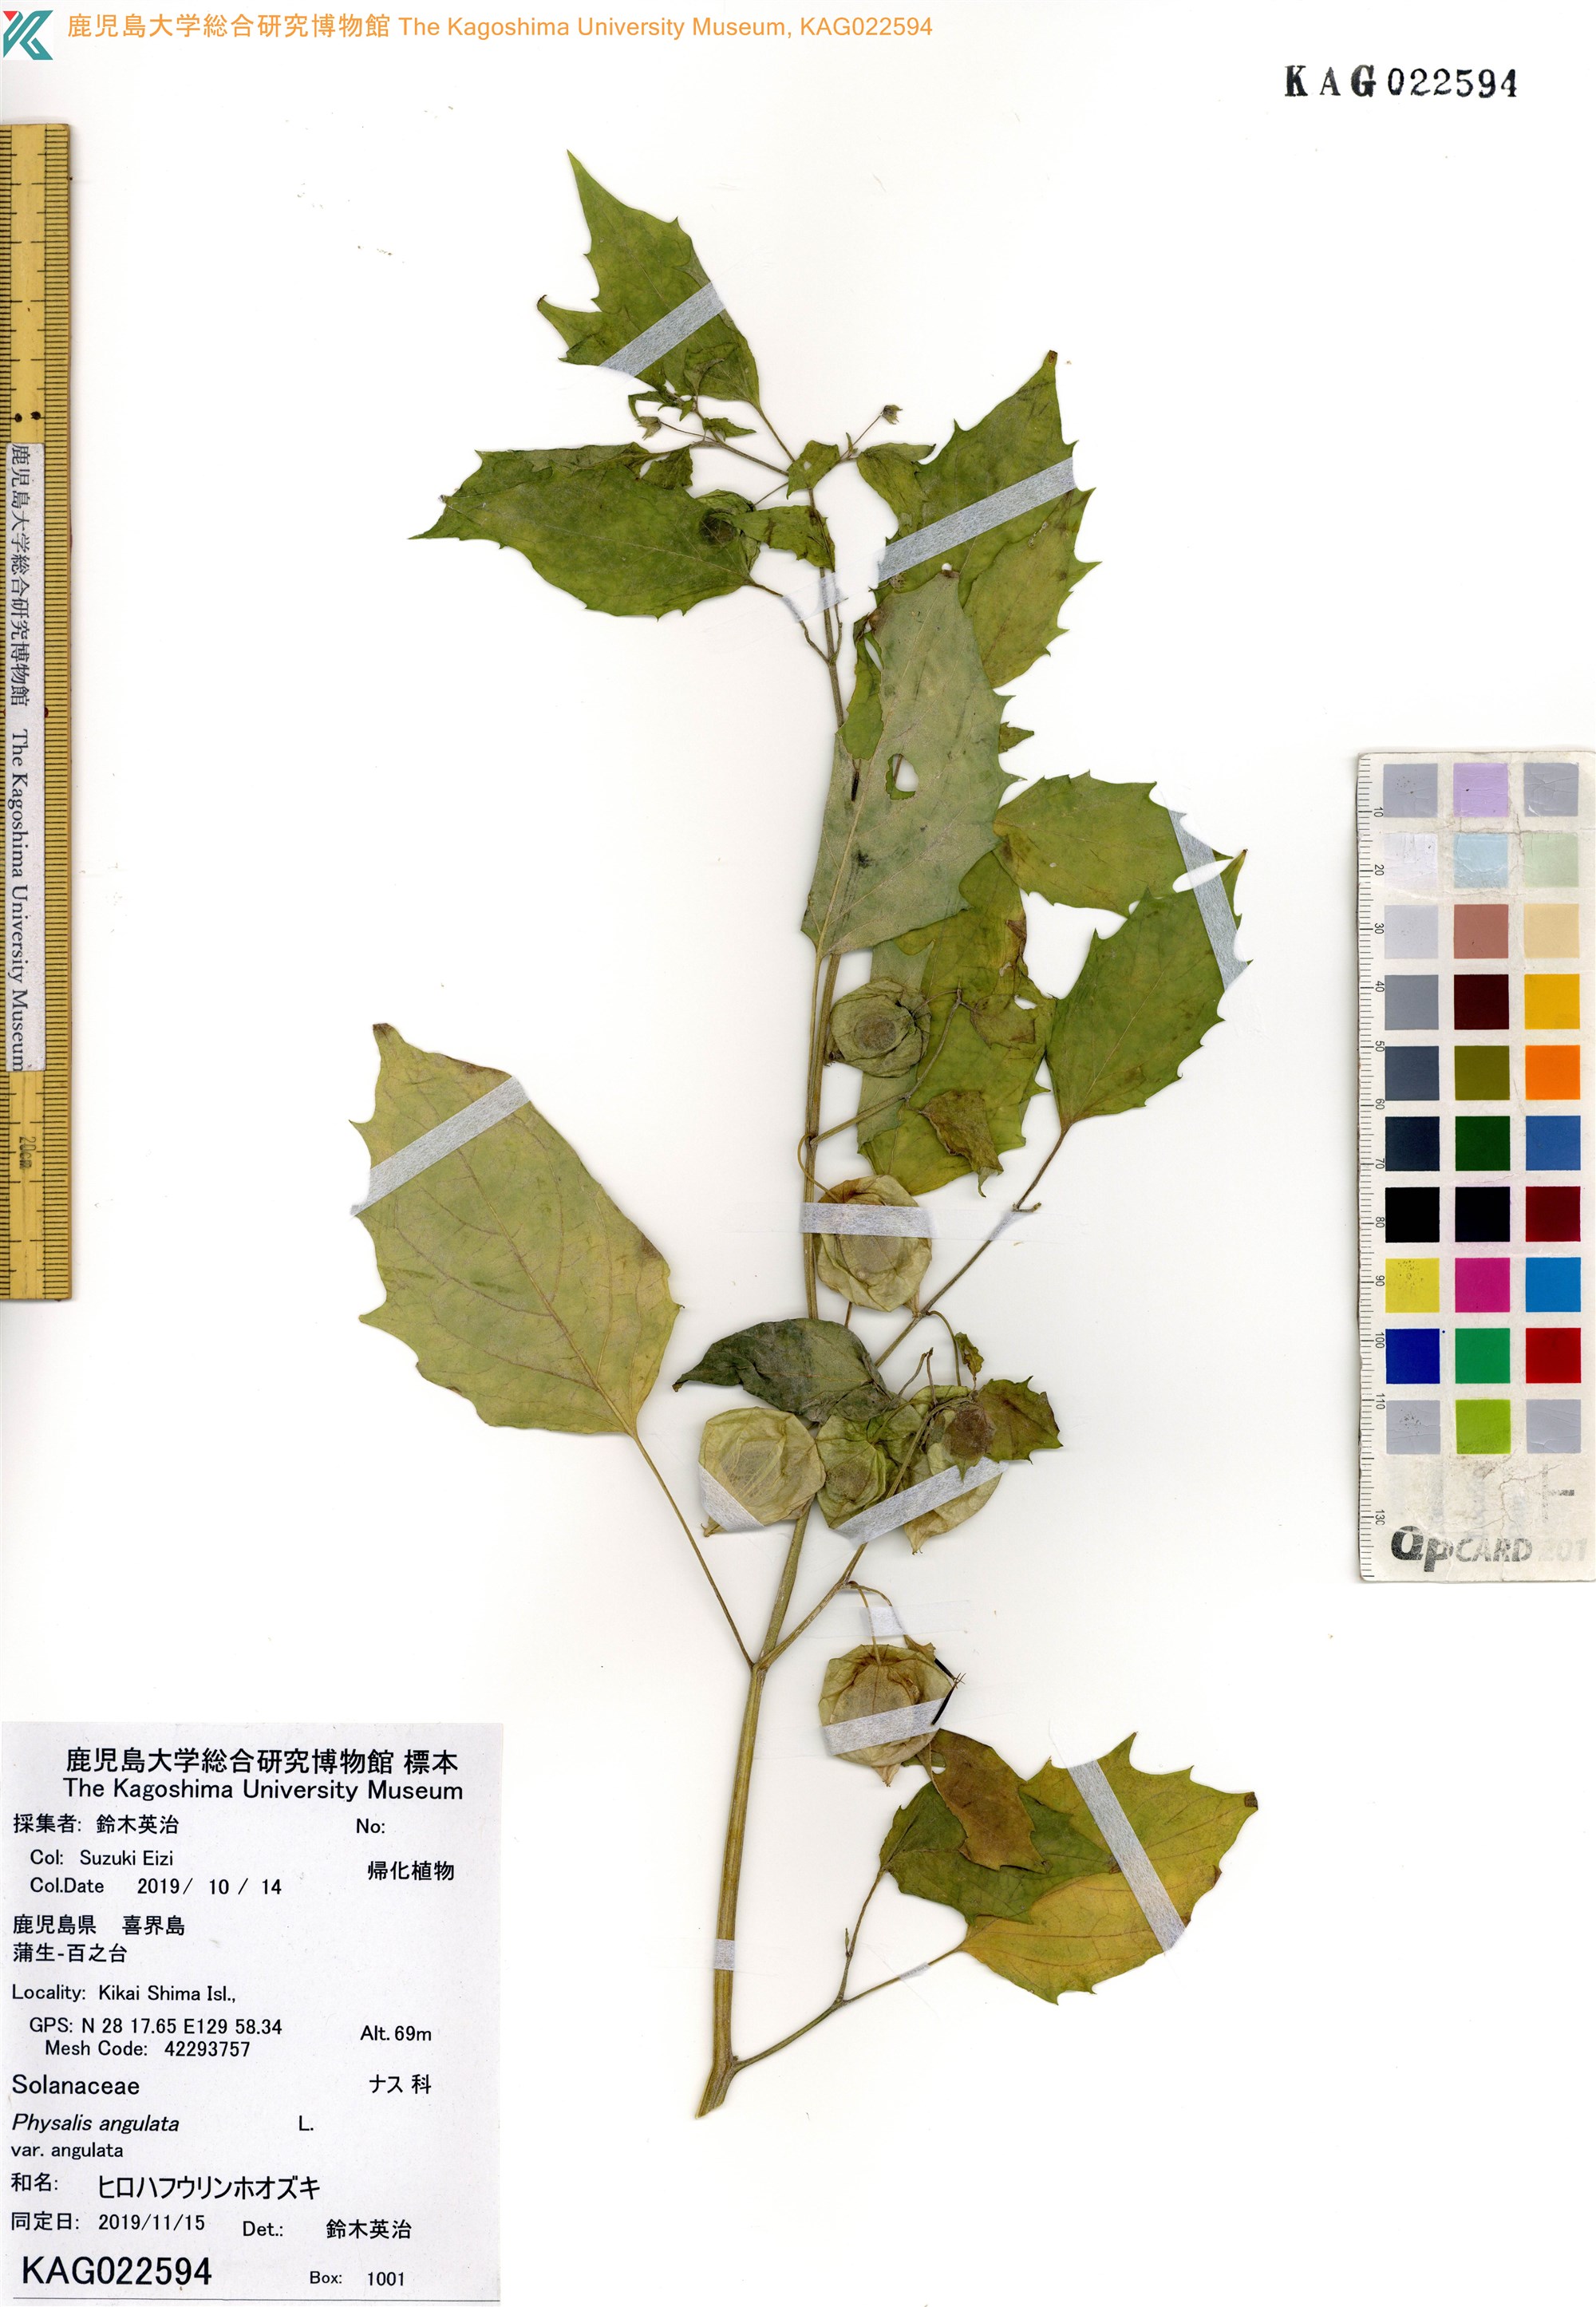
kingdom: Plantae
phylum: Tracheophyta
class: Magnoliopsida
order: Solanales
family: Solanaceae
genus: Physalis
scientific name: Physalis angulata
